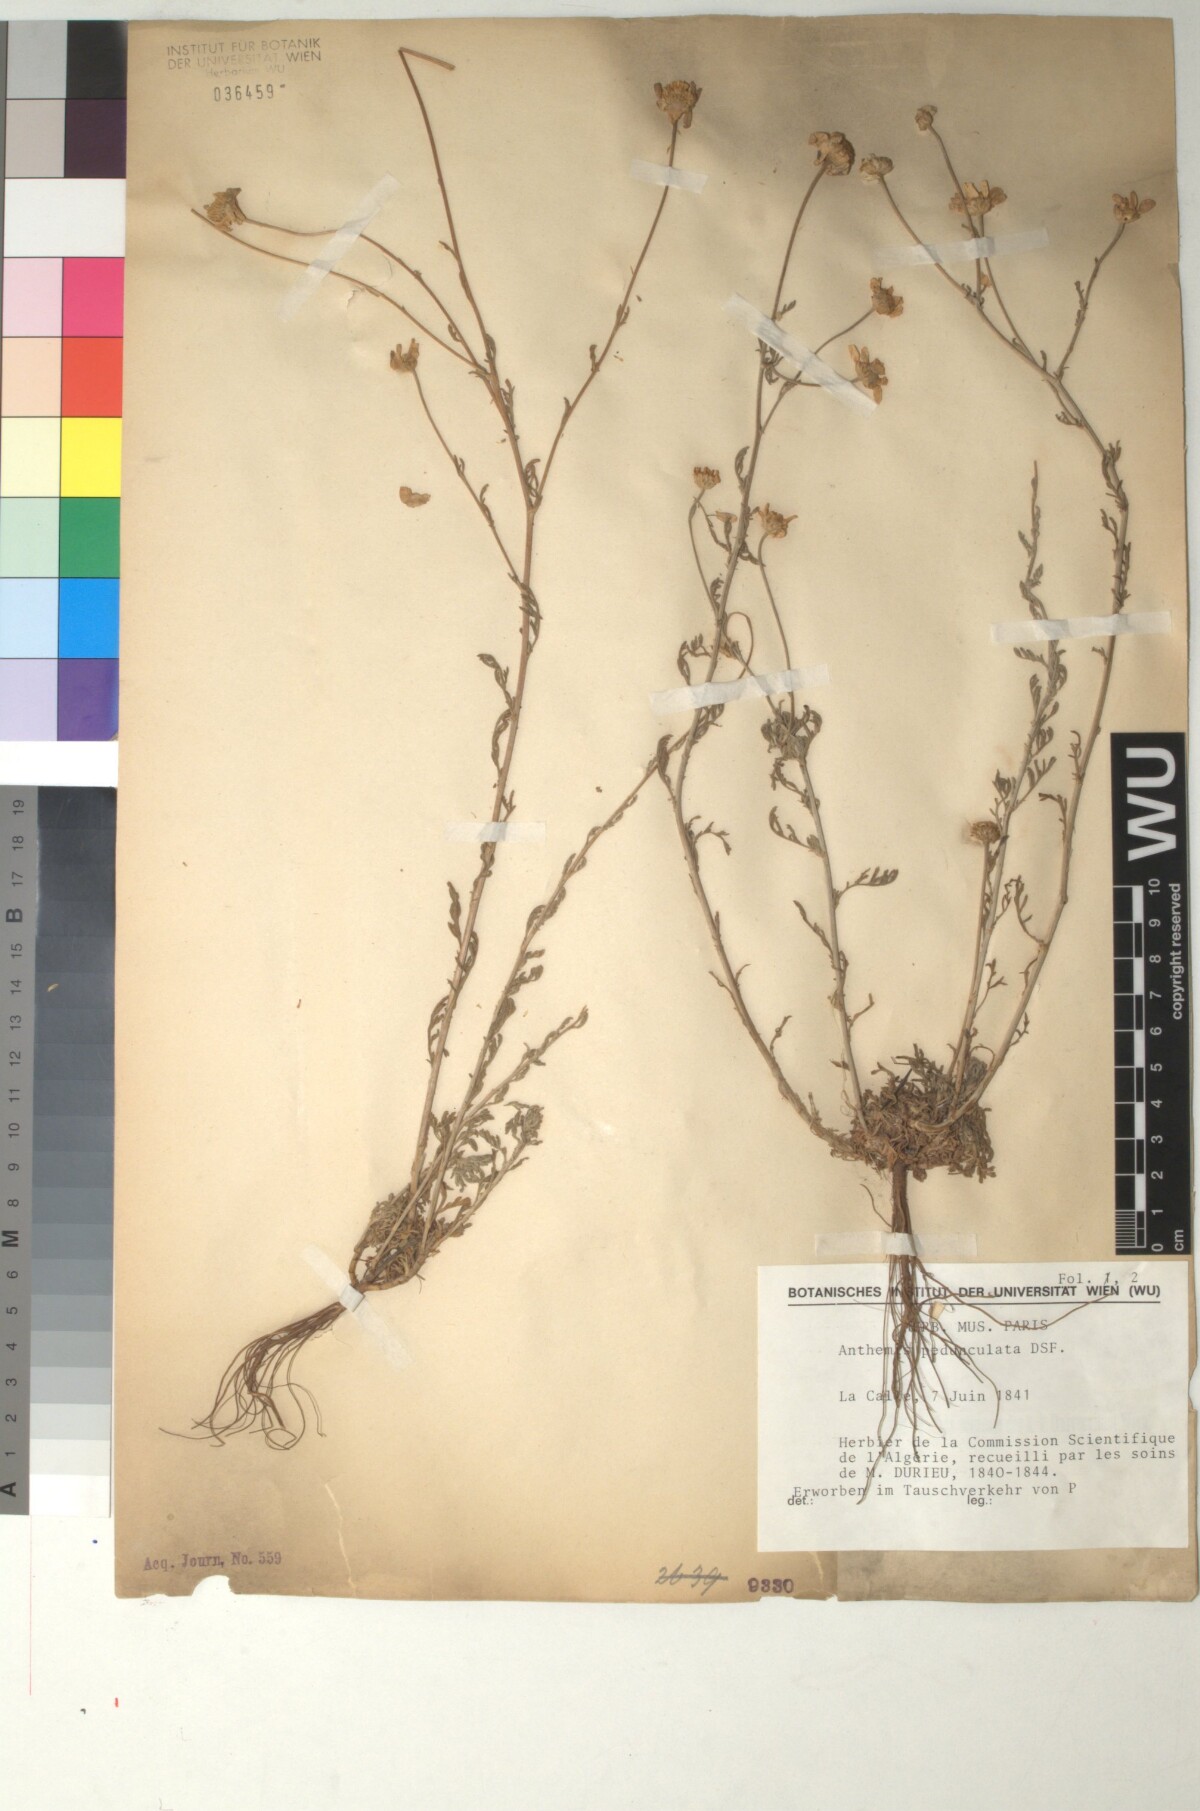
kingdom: Plantae
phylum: Tracheophyta
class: Magnoliopsida
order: Asterales
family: Asteraceae
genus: Anthemis
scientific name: Anthemis pedunculata
